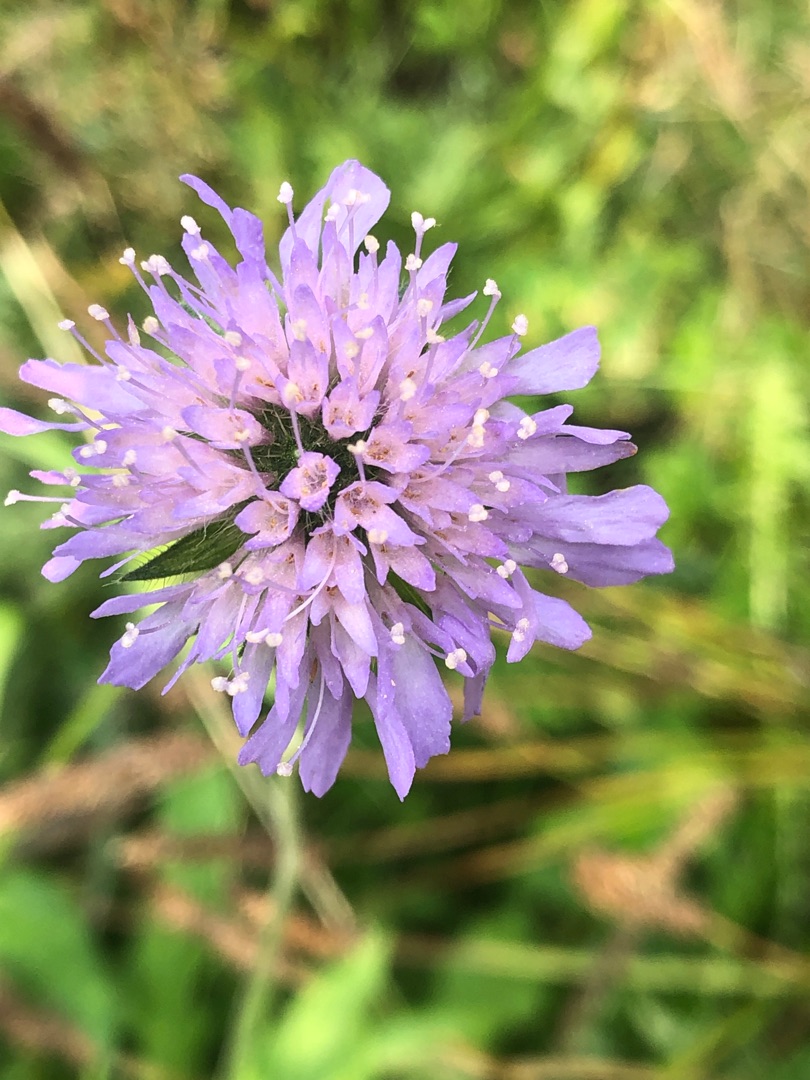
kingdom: Plantae
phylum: Tracheophyta
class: Magnoliopsida
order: Dipsacales
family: Caprifoliaceae
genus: Knautia
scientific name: Knautia arvensis
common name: Blåhat
